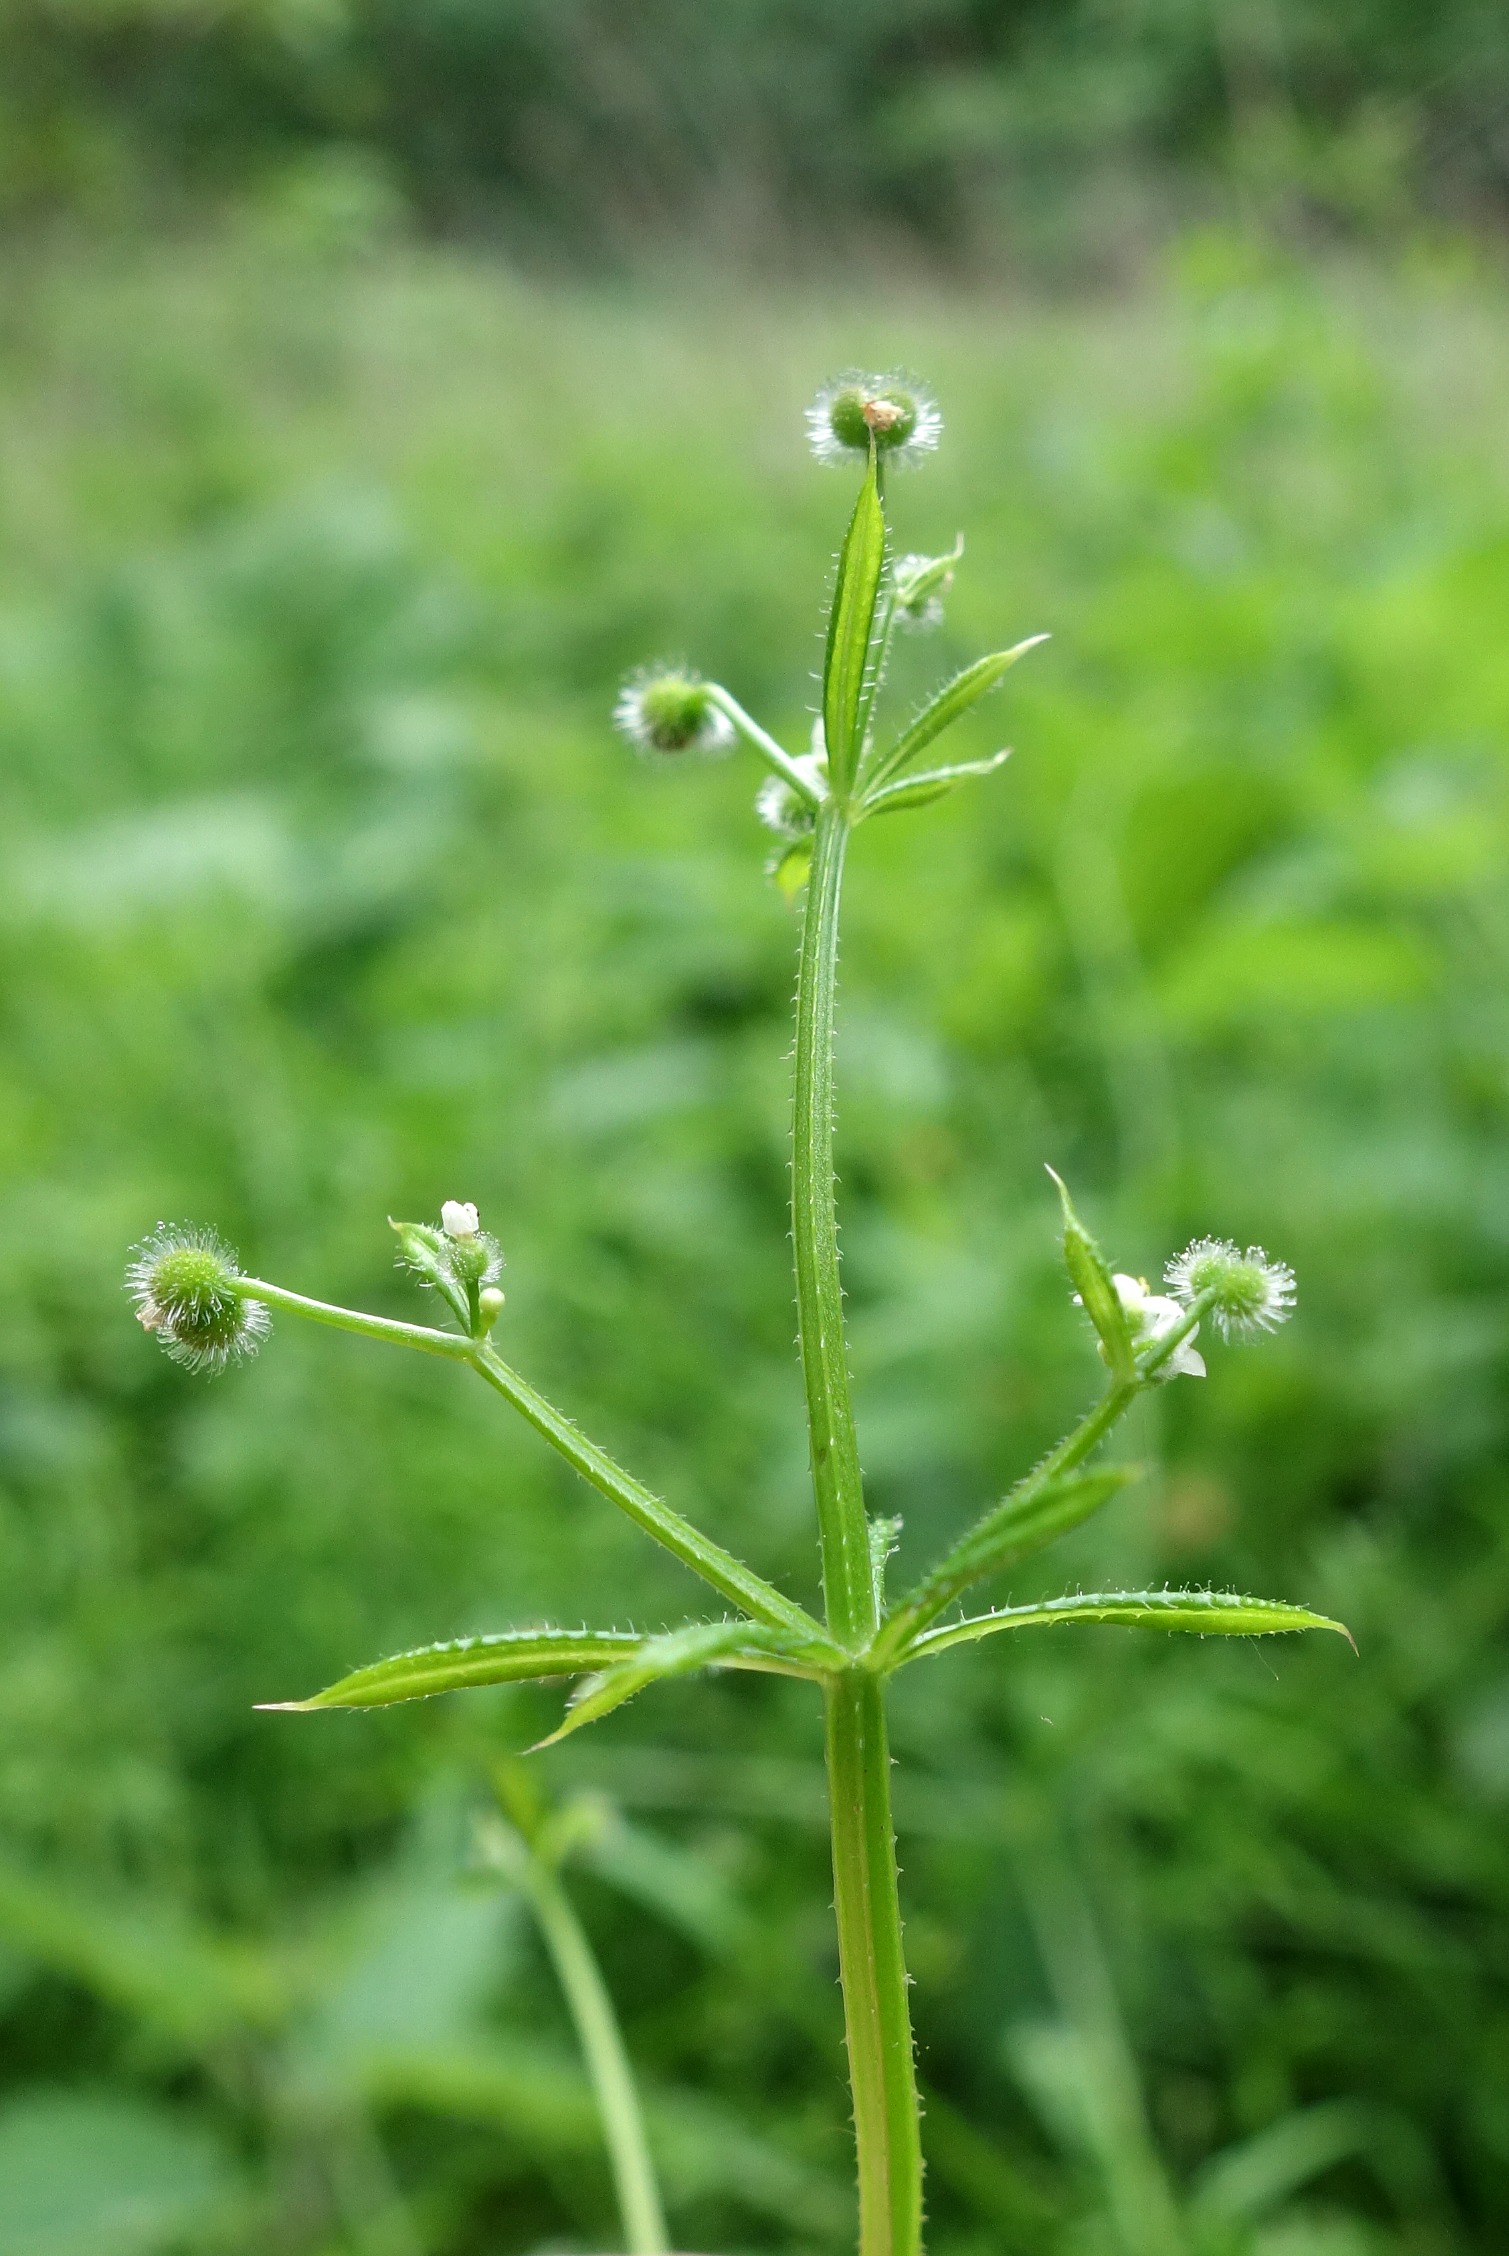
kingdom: Plantae
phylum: Tracheophyta
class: Magnoliopsida
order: Gentianales
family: Rubiaceae
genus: Galium
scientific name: Galium aparine
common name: Burre-snerre
